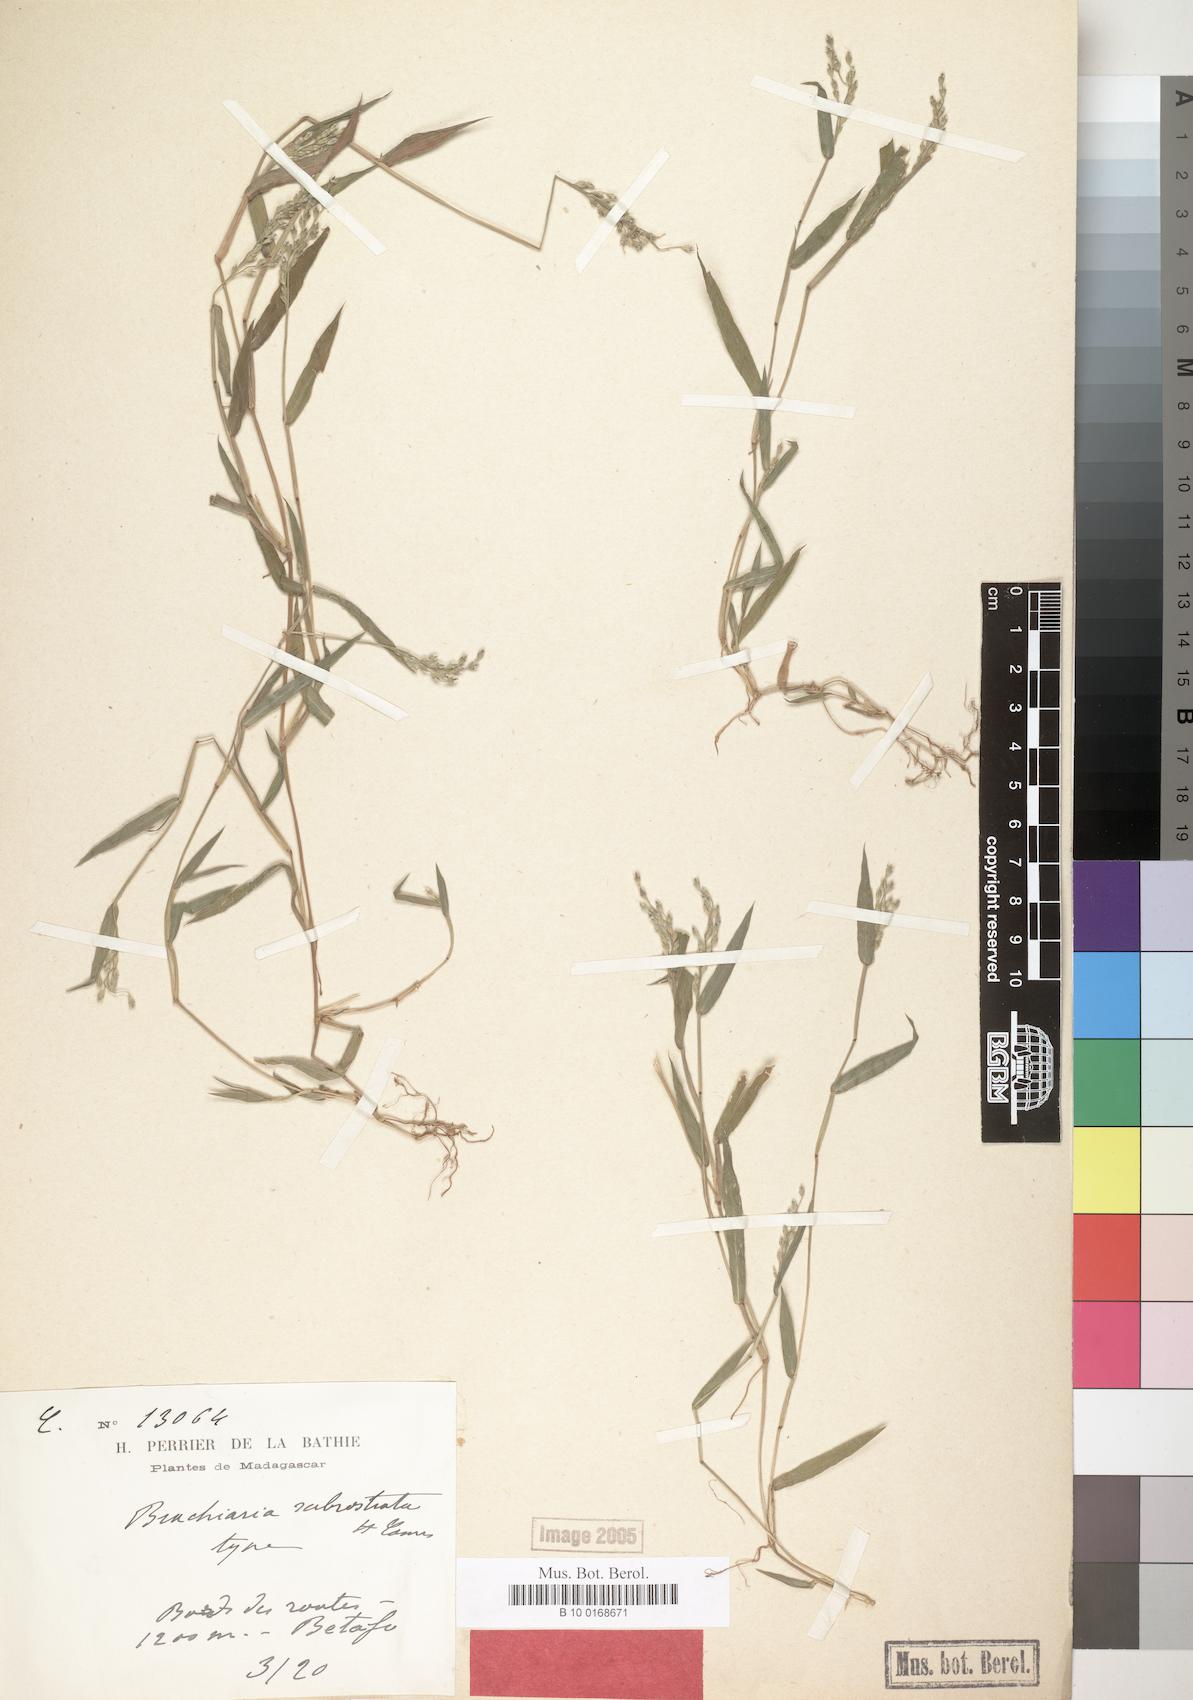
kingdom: Plantae
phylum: Tracheophyta
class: Liliopsida
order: Poales
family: Poaceae
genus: Urochloa
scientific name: Urochloa Brachiaria subrostrata
